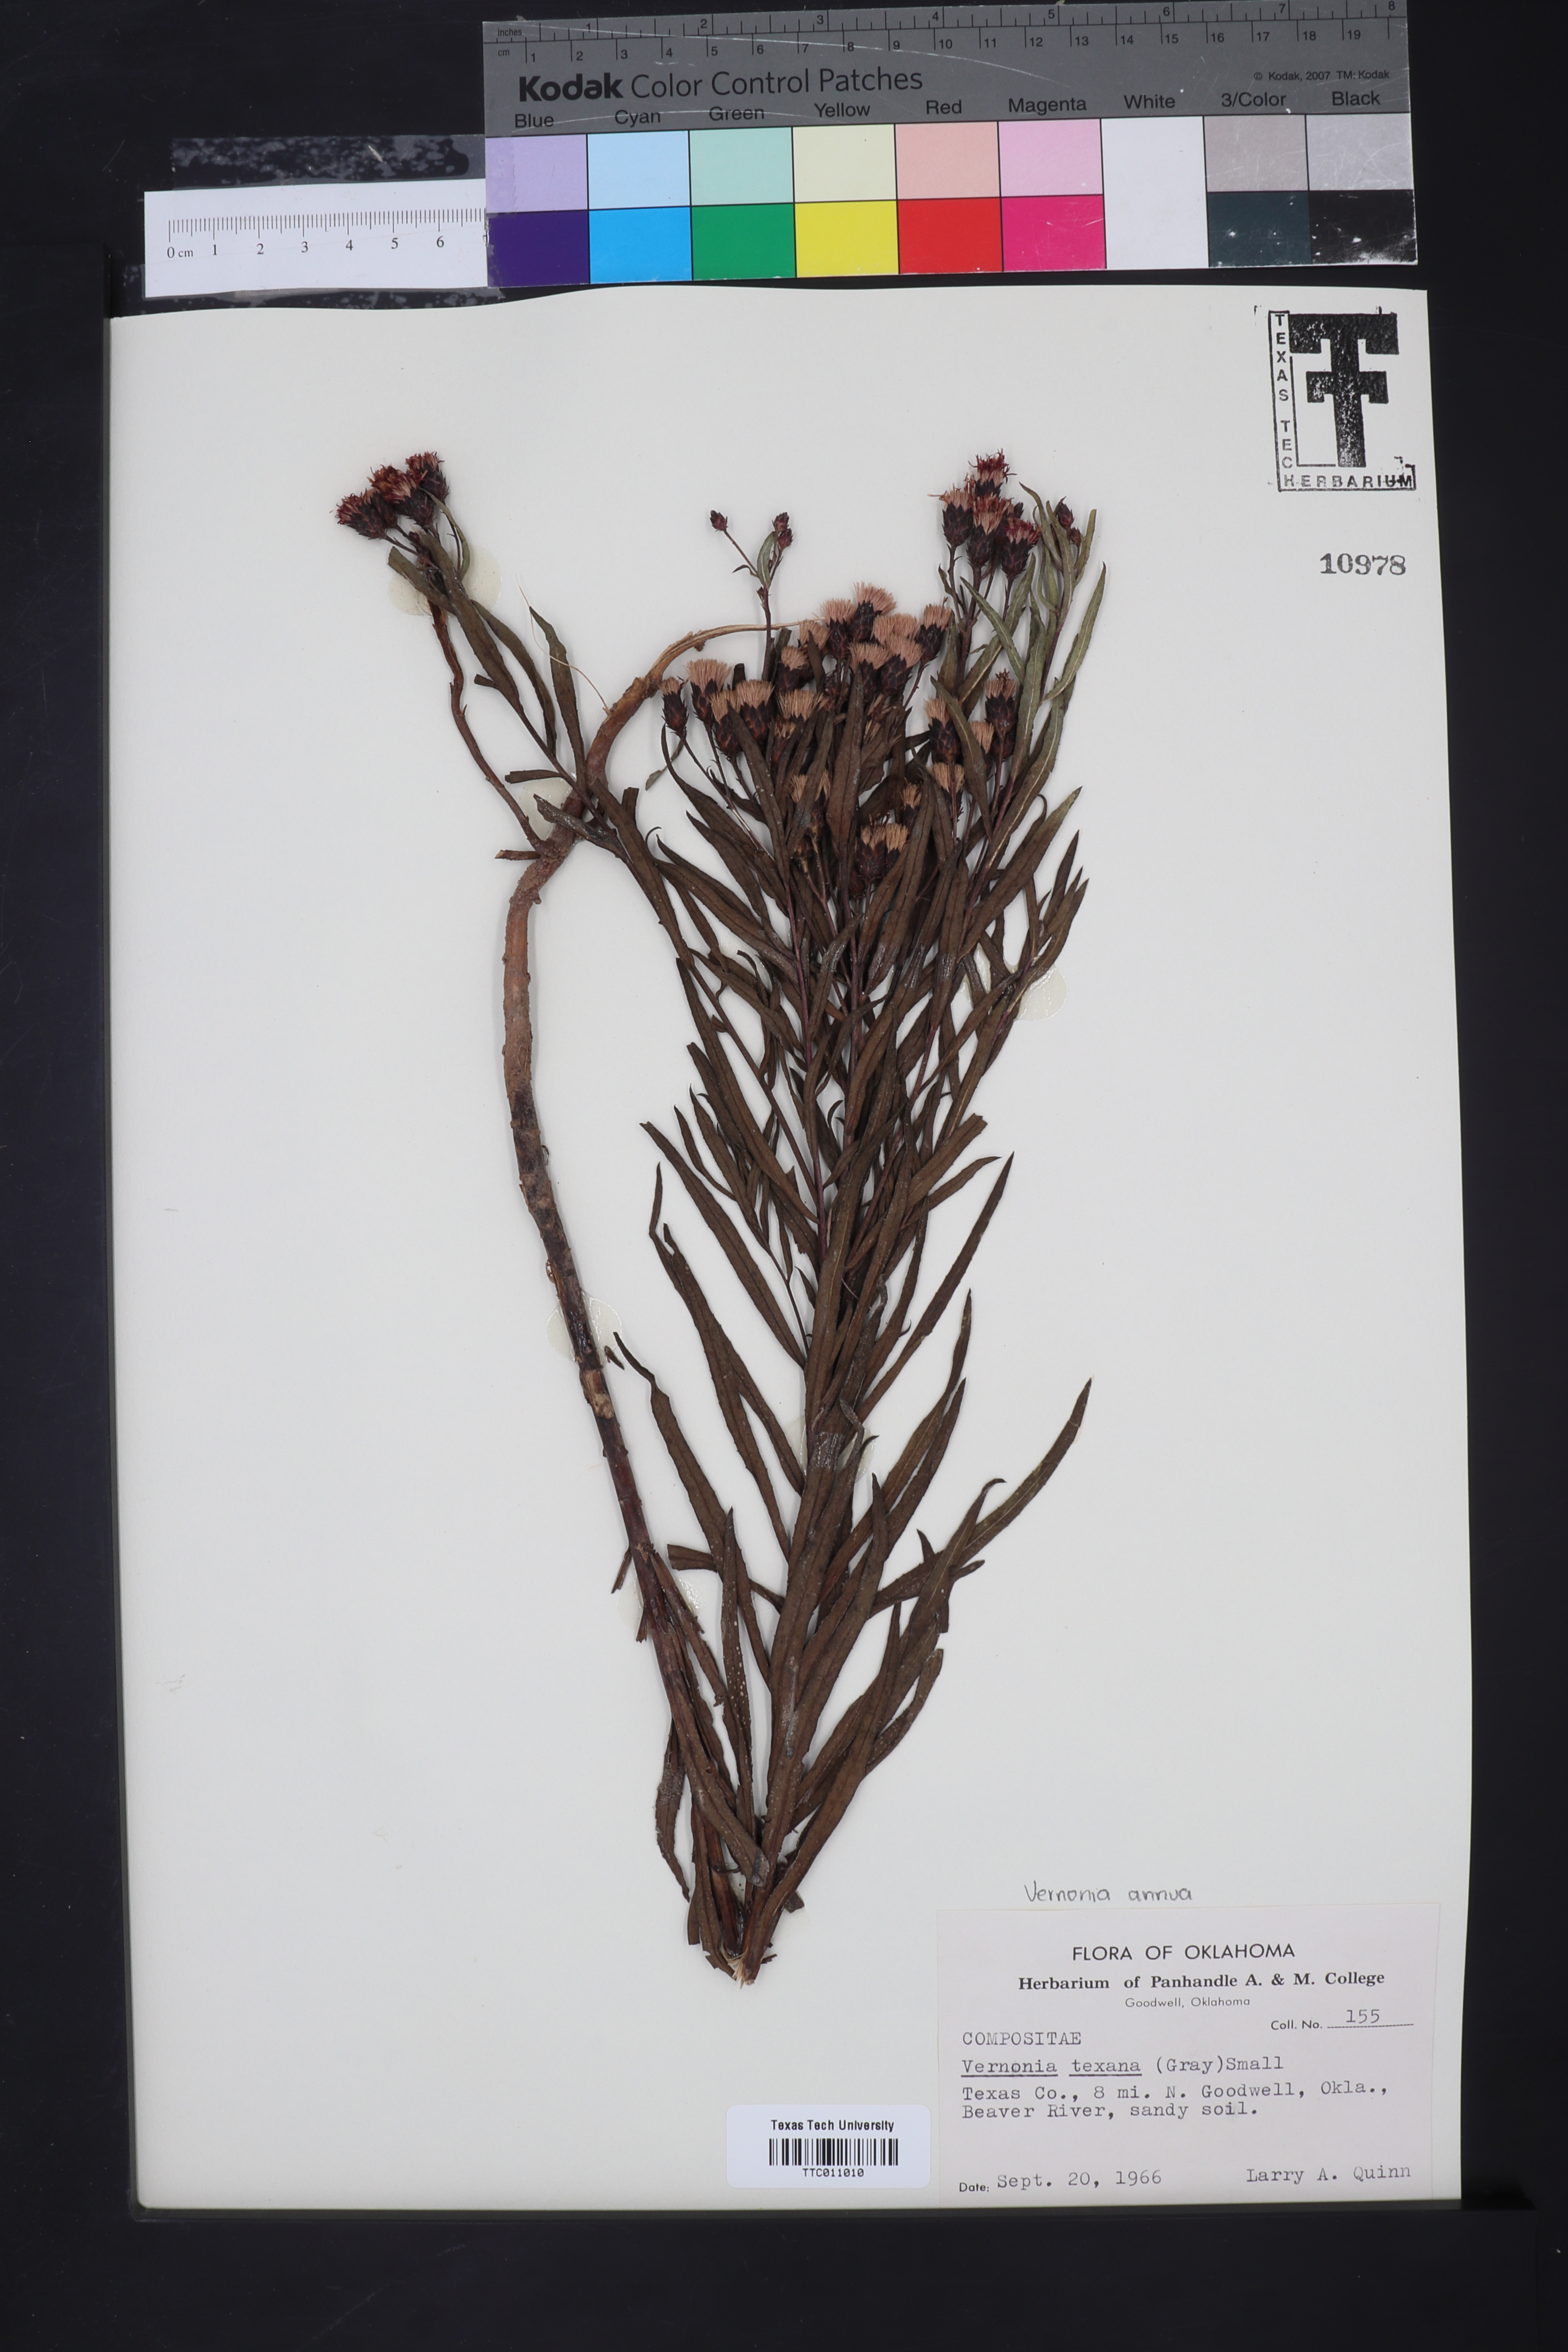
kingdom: Plantae
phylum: Tracheophyta
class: Magnoliopsida
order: Asterales
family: Asteraceae
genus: Vernonia
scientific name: Vernonia texana
